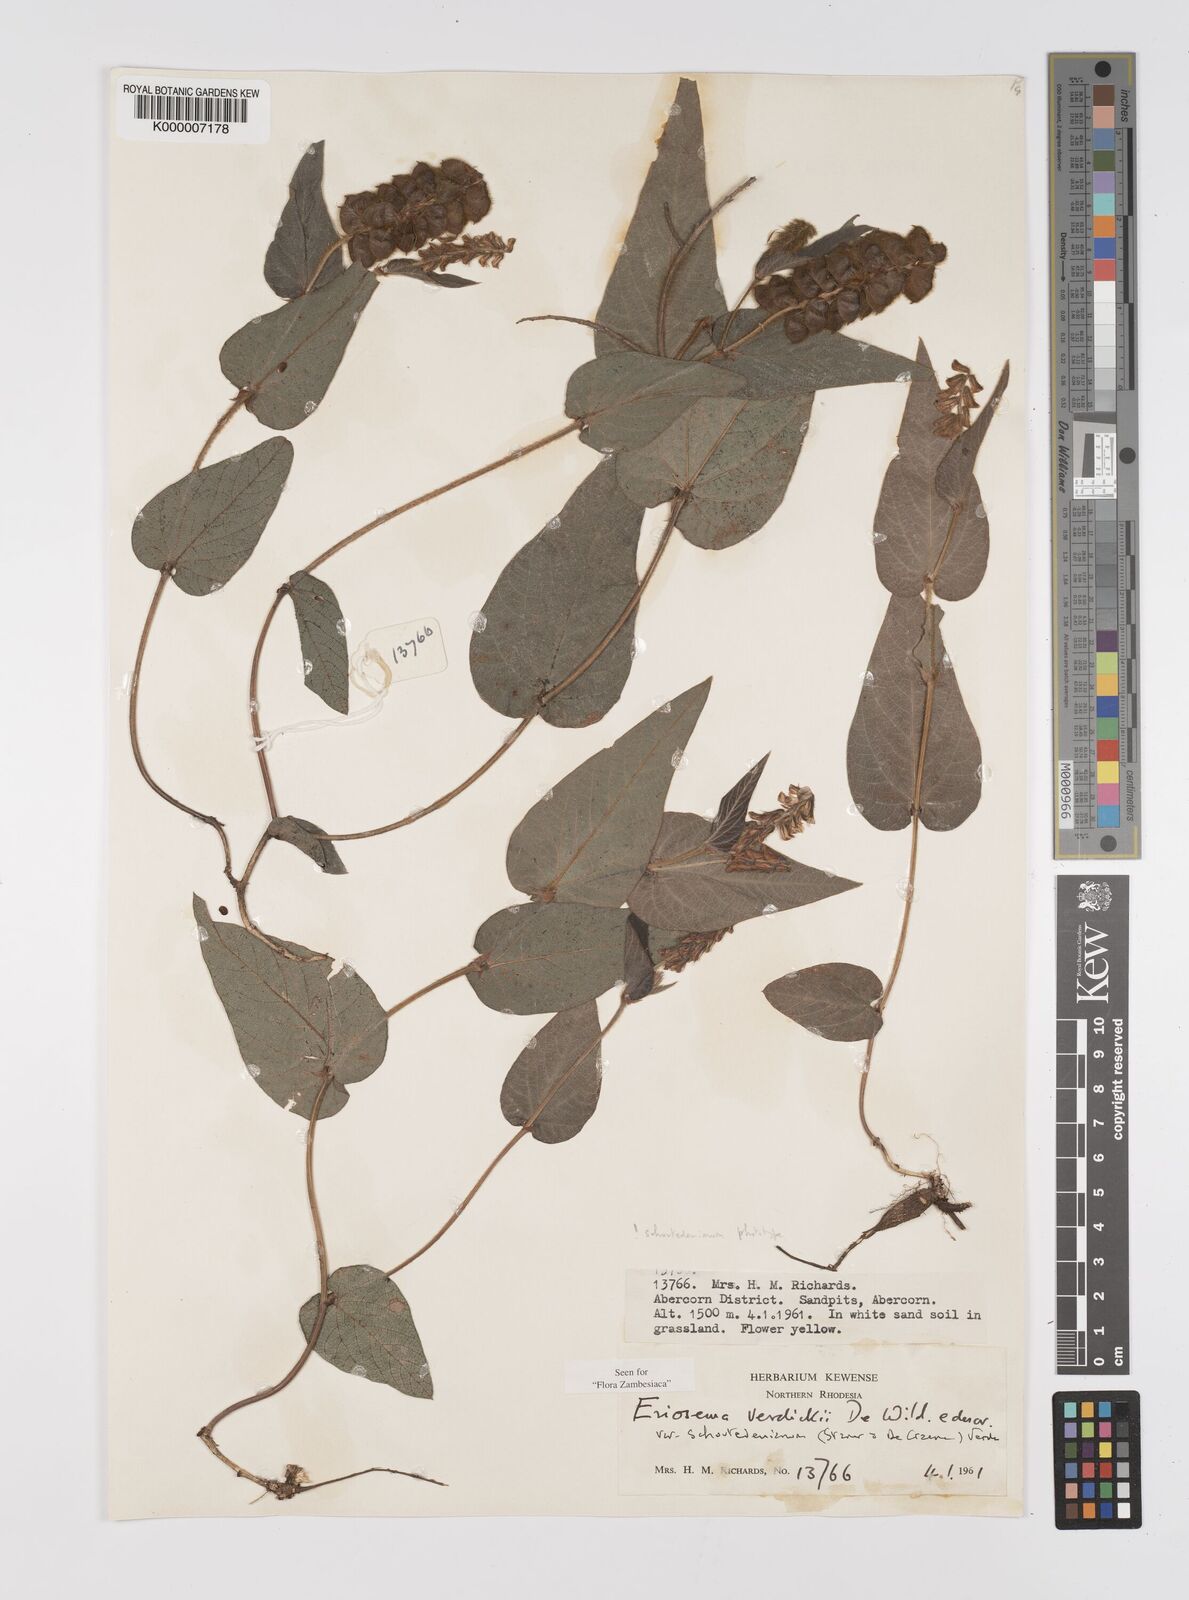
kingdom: Plantae
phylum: Tracheophyta
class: Magnoliopsida
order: Fabales
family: Fabaceae
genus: Eriosema
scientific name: Eriosema verdickii
